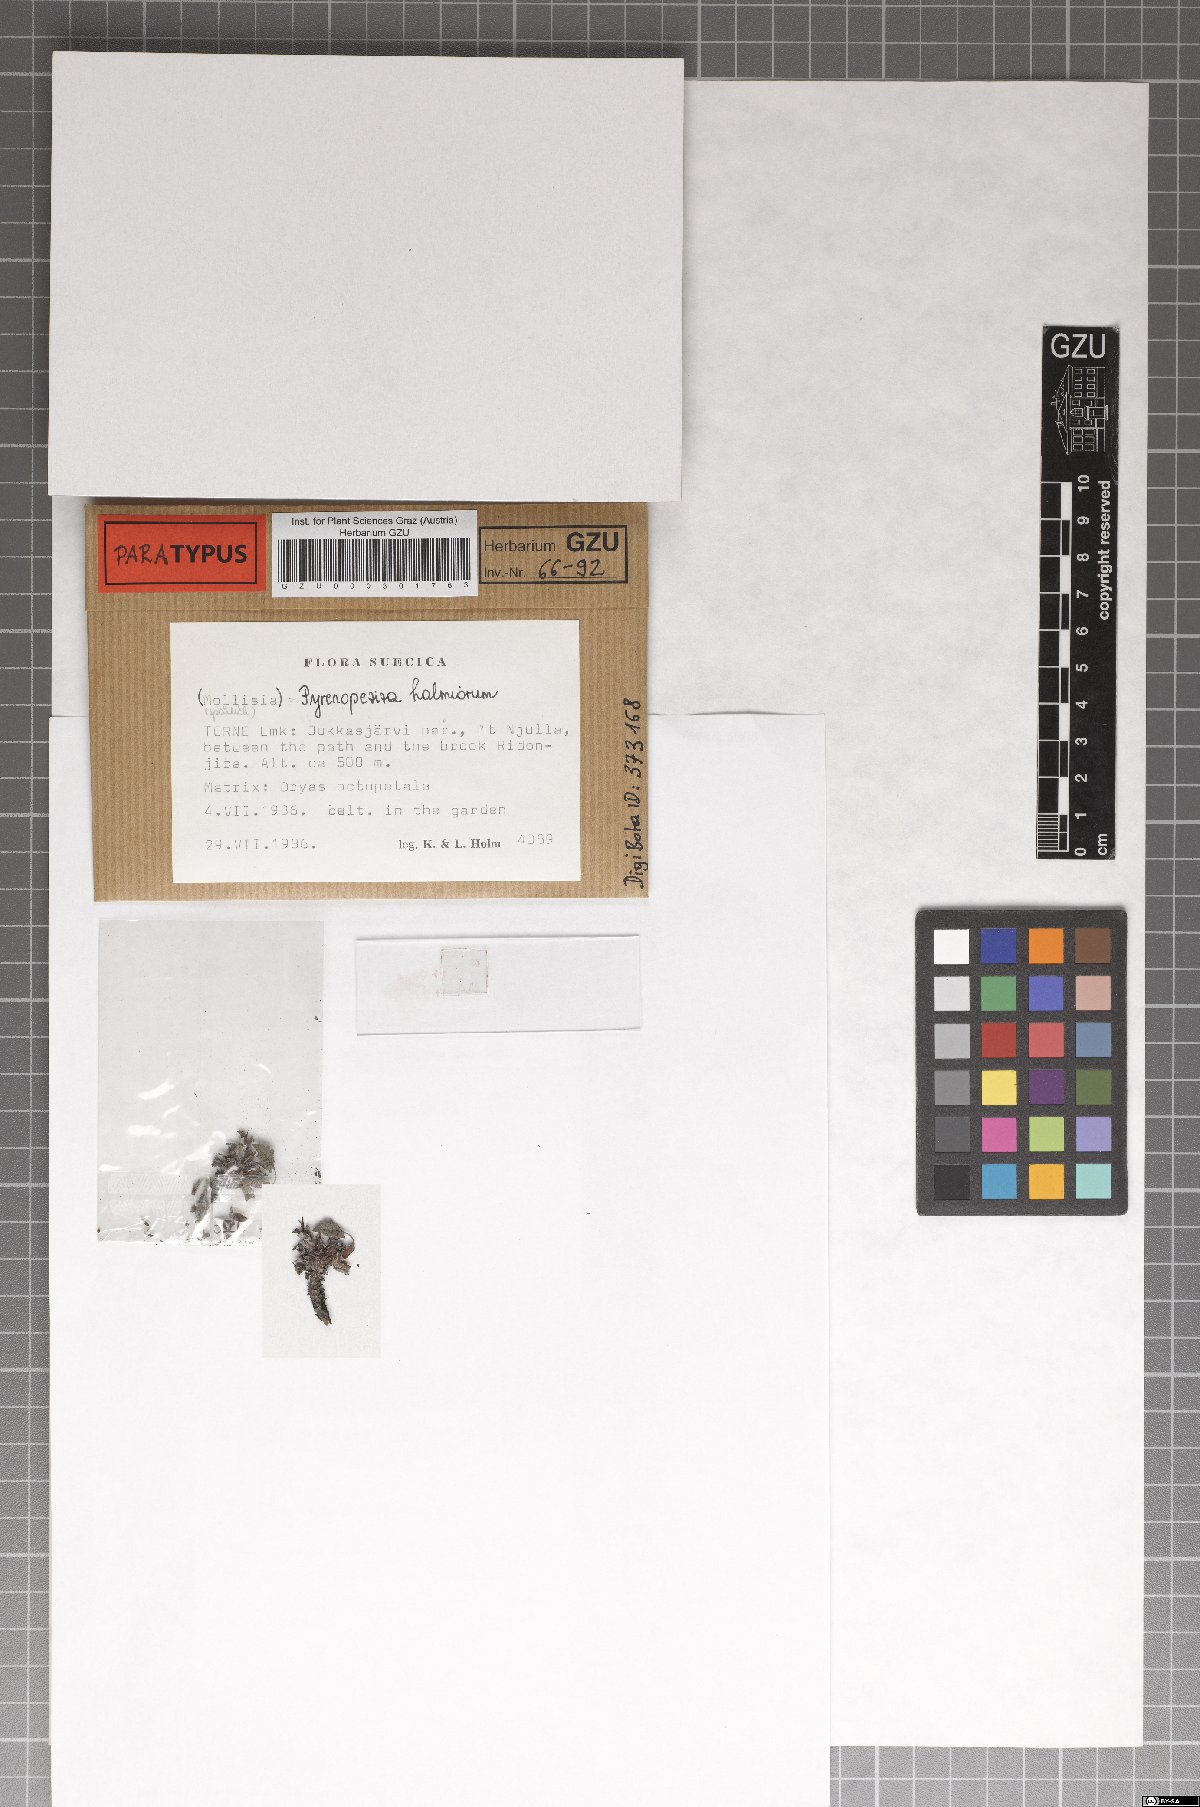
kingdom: Fungi
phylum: Ascomycota
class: Leotiomycetes
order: Helotiales
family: Ploettnerulaceae
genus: Pyrenopeziza
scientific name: Pyrenopeziza holmiorum
